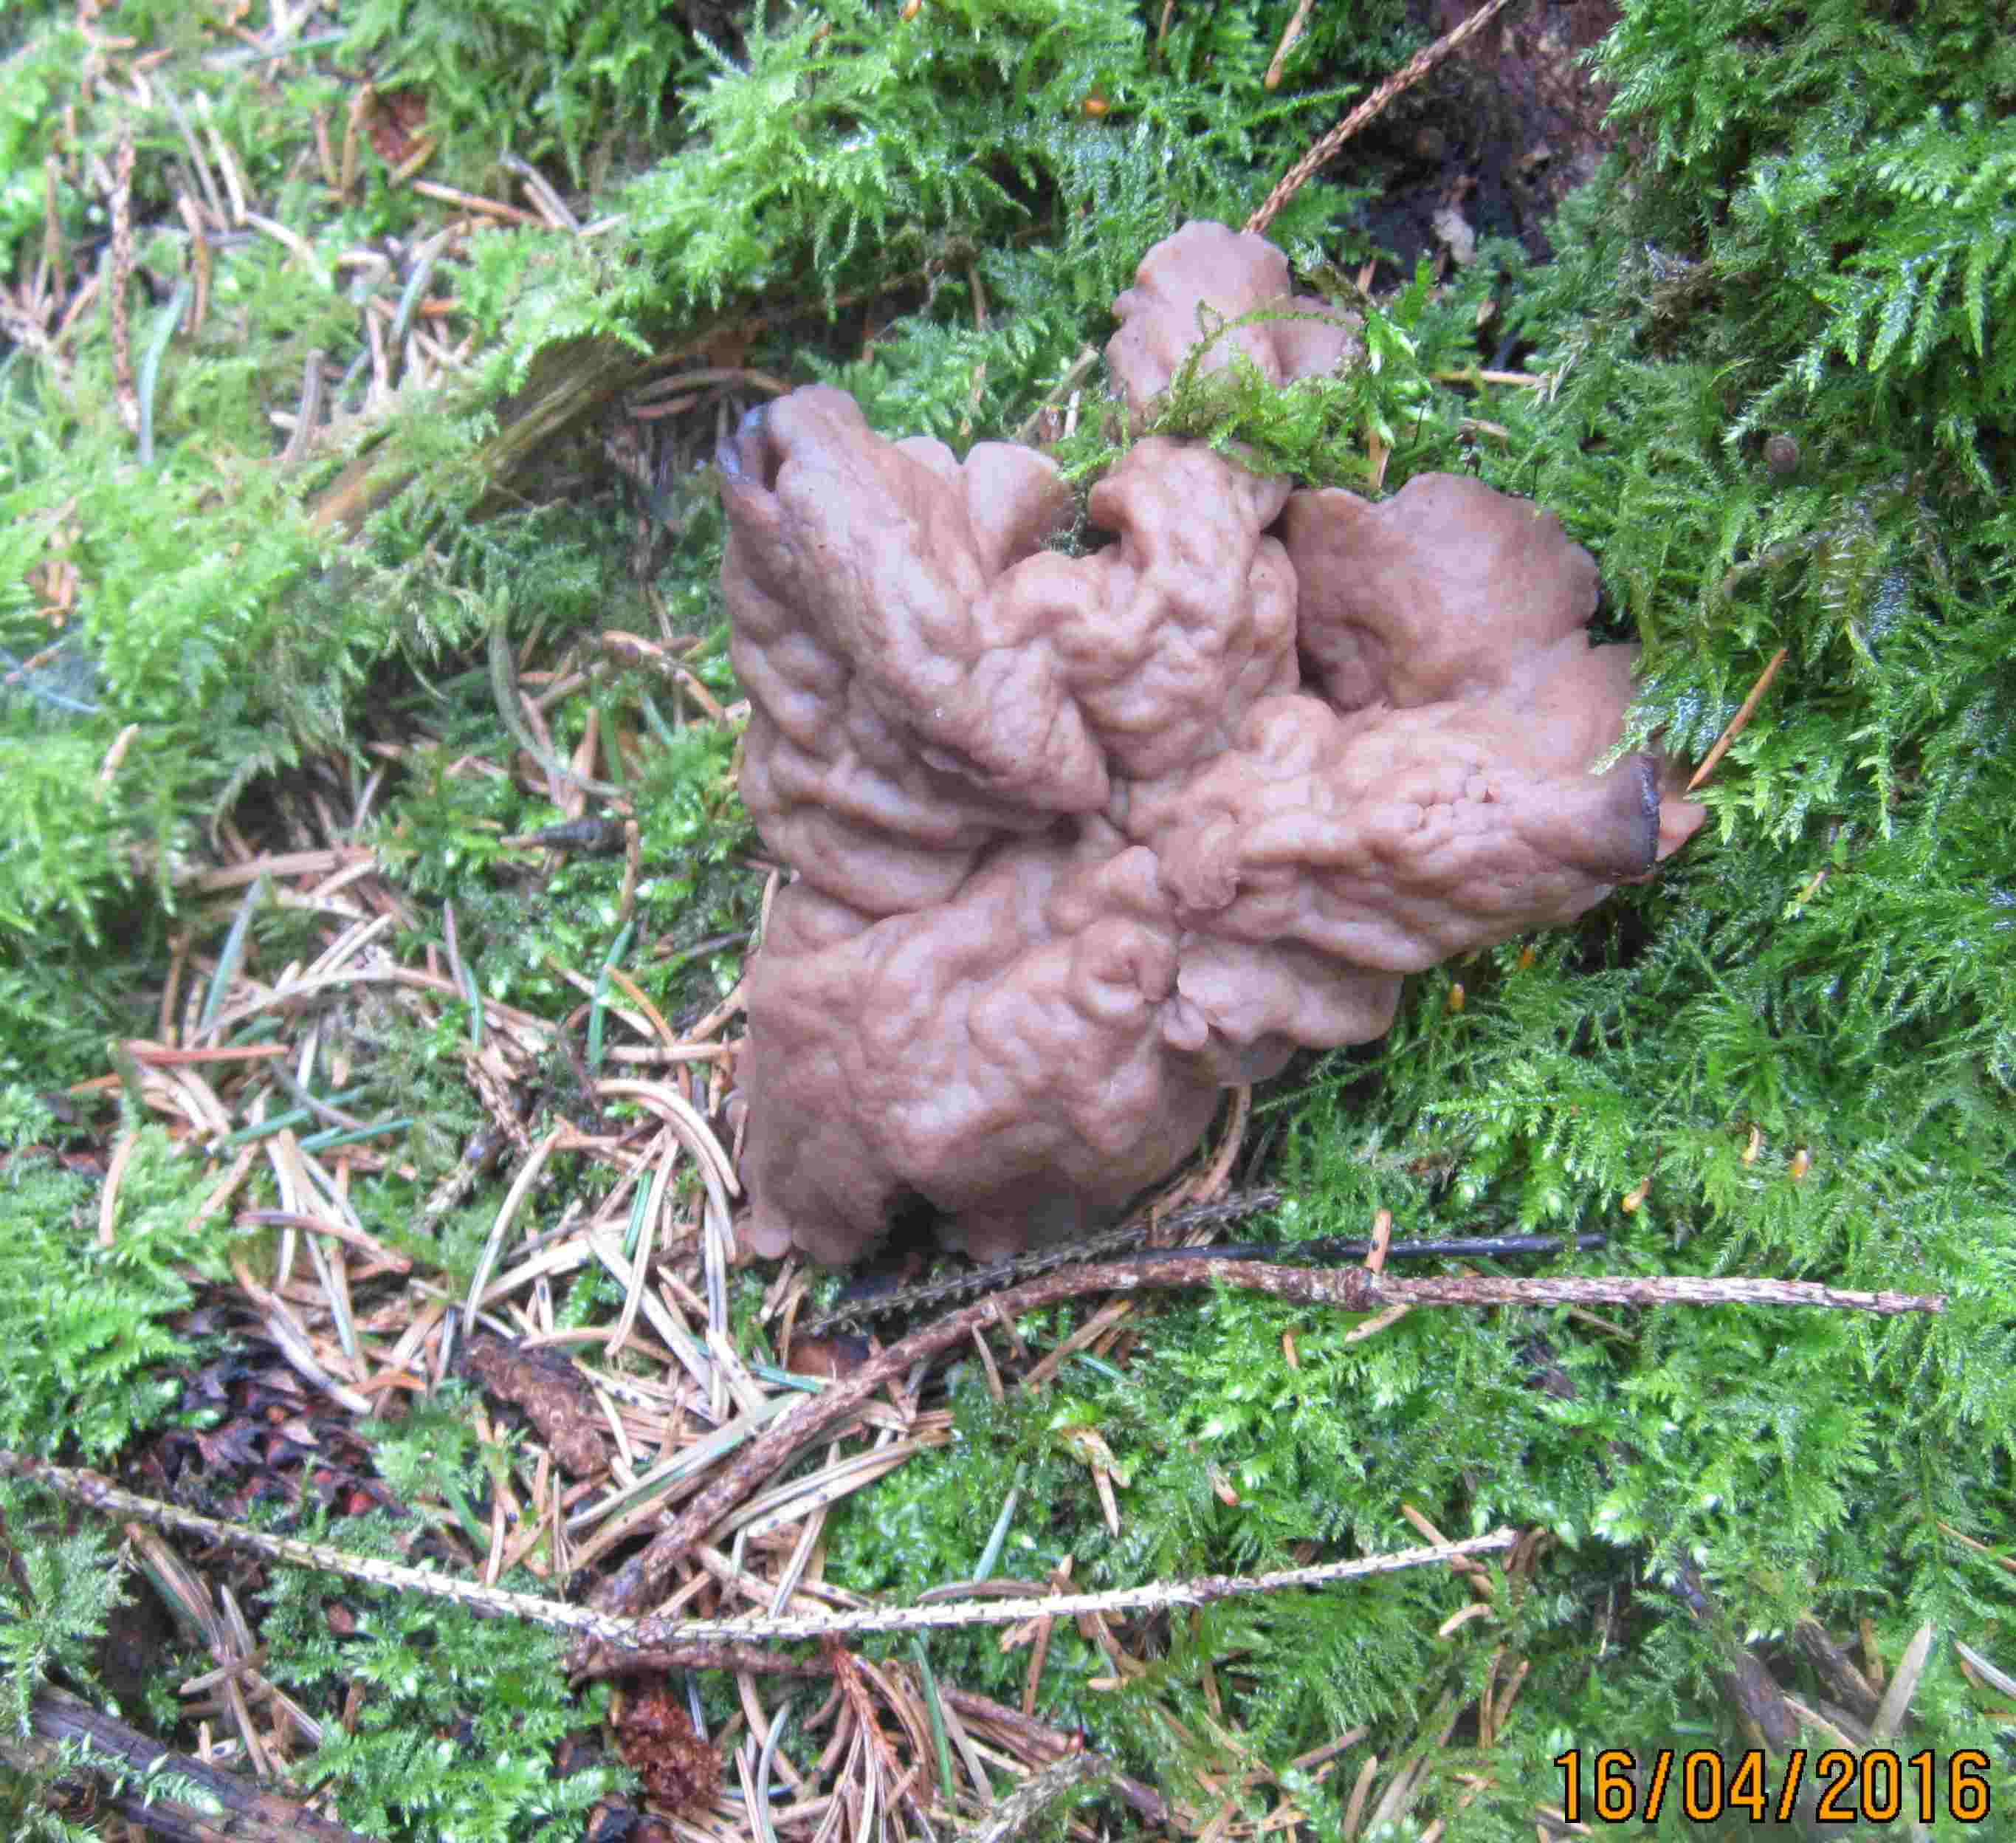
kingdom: Fungi
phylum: Ascomycota
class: Pezizomycetes
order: Pezizales
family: Discinaceae
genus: Discina
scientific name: Discina ancilis
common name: udbredt stenmorkel
